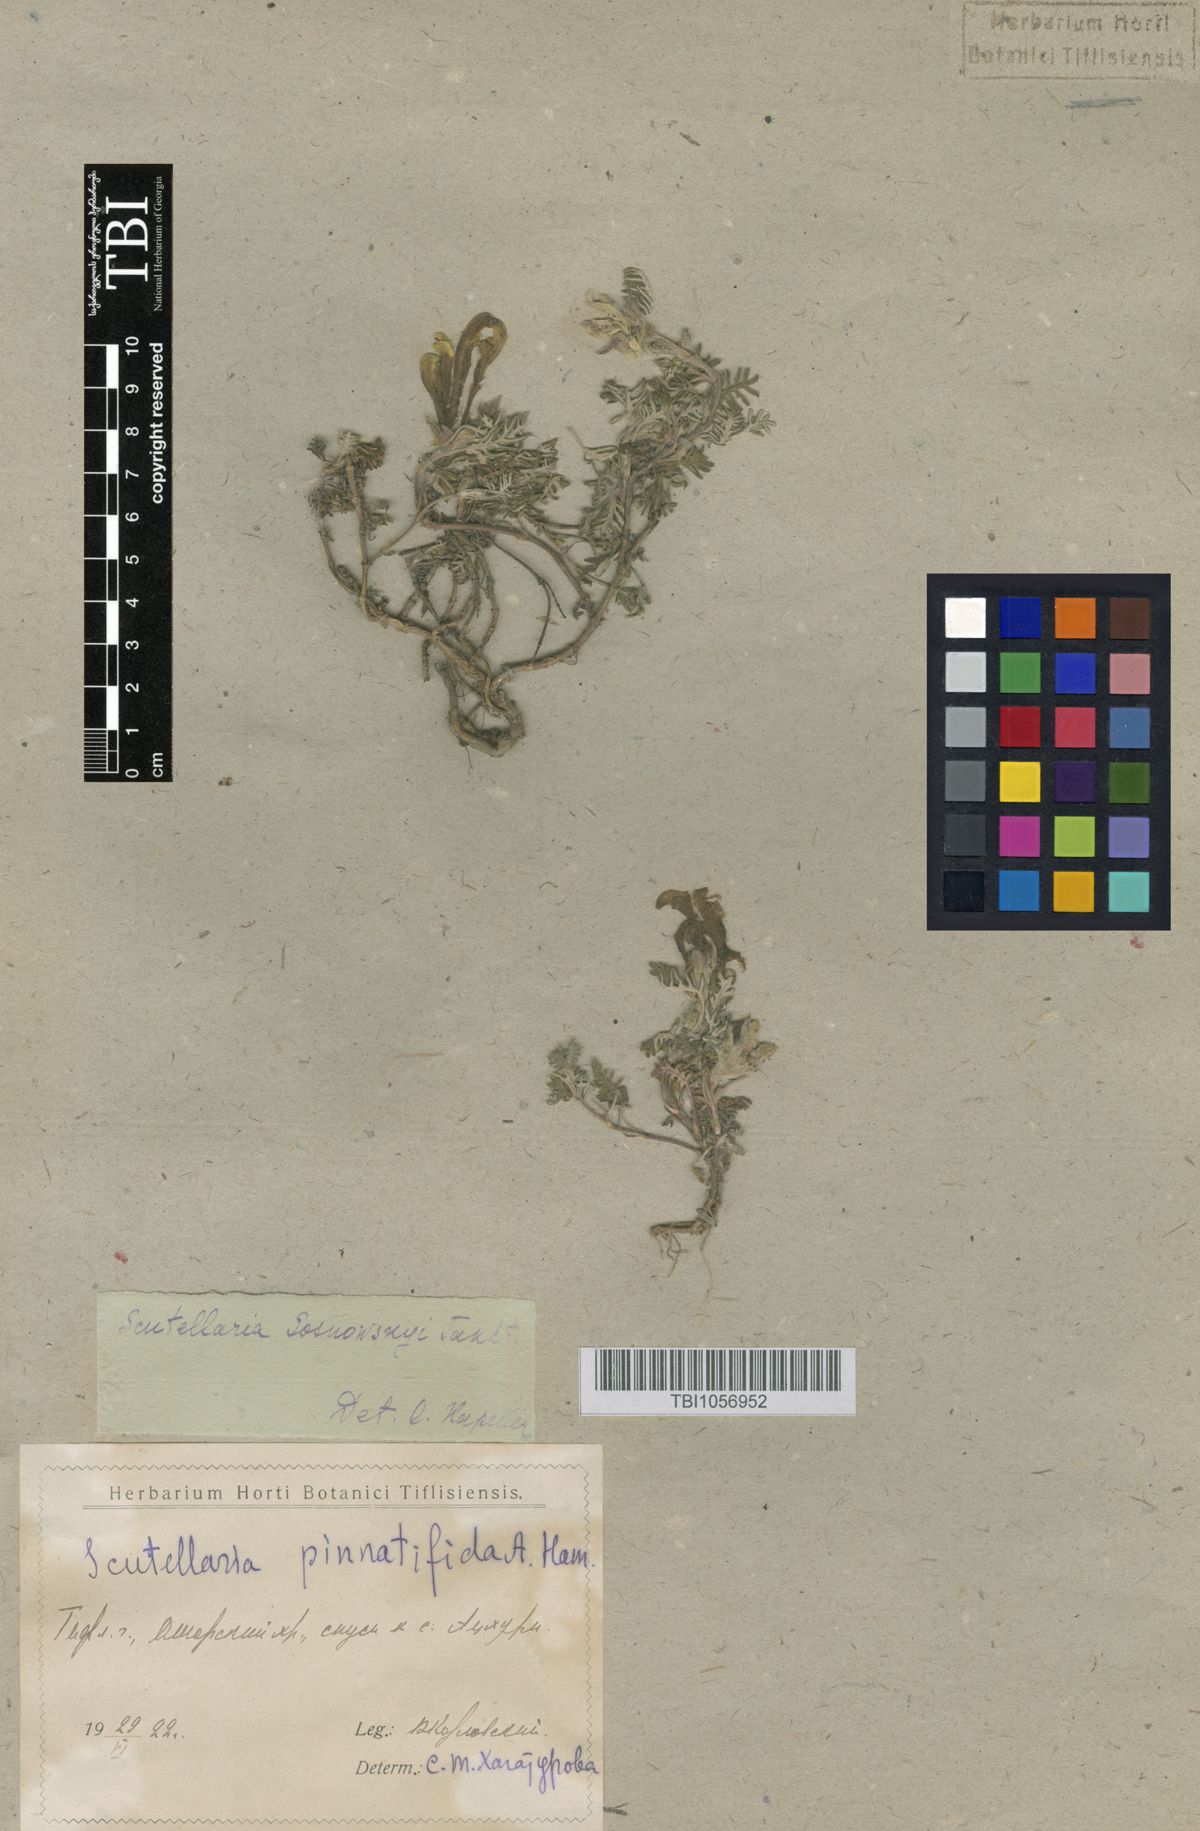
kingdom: Plantae
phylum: Tracheophyta
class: Magnoliopsida
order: Lamiales
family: Lamiaceae
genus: Scutellaria
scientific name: Scutellaria sosnowskyi
